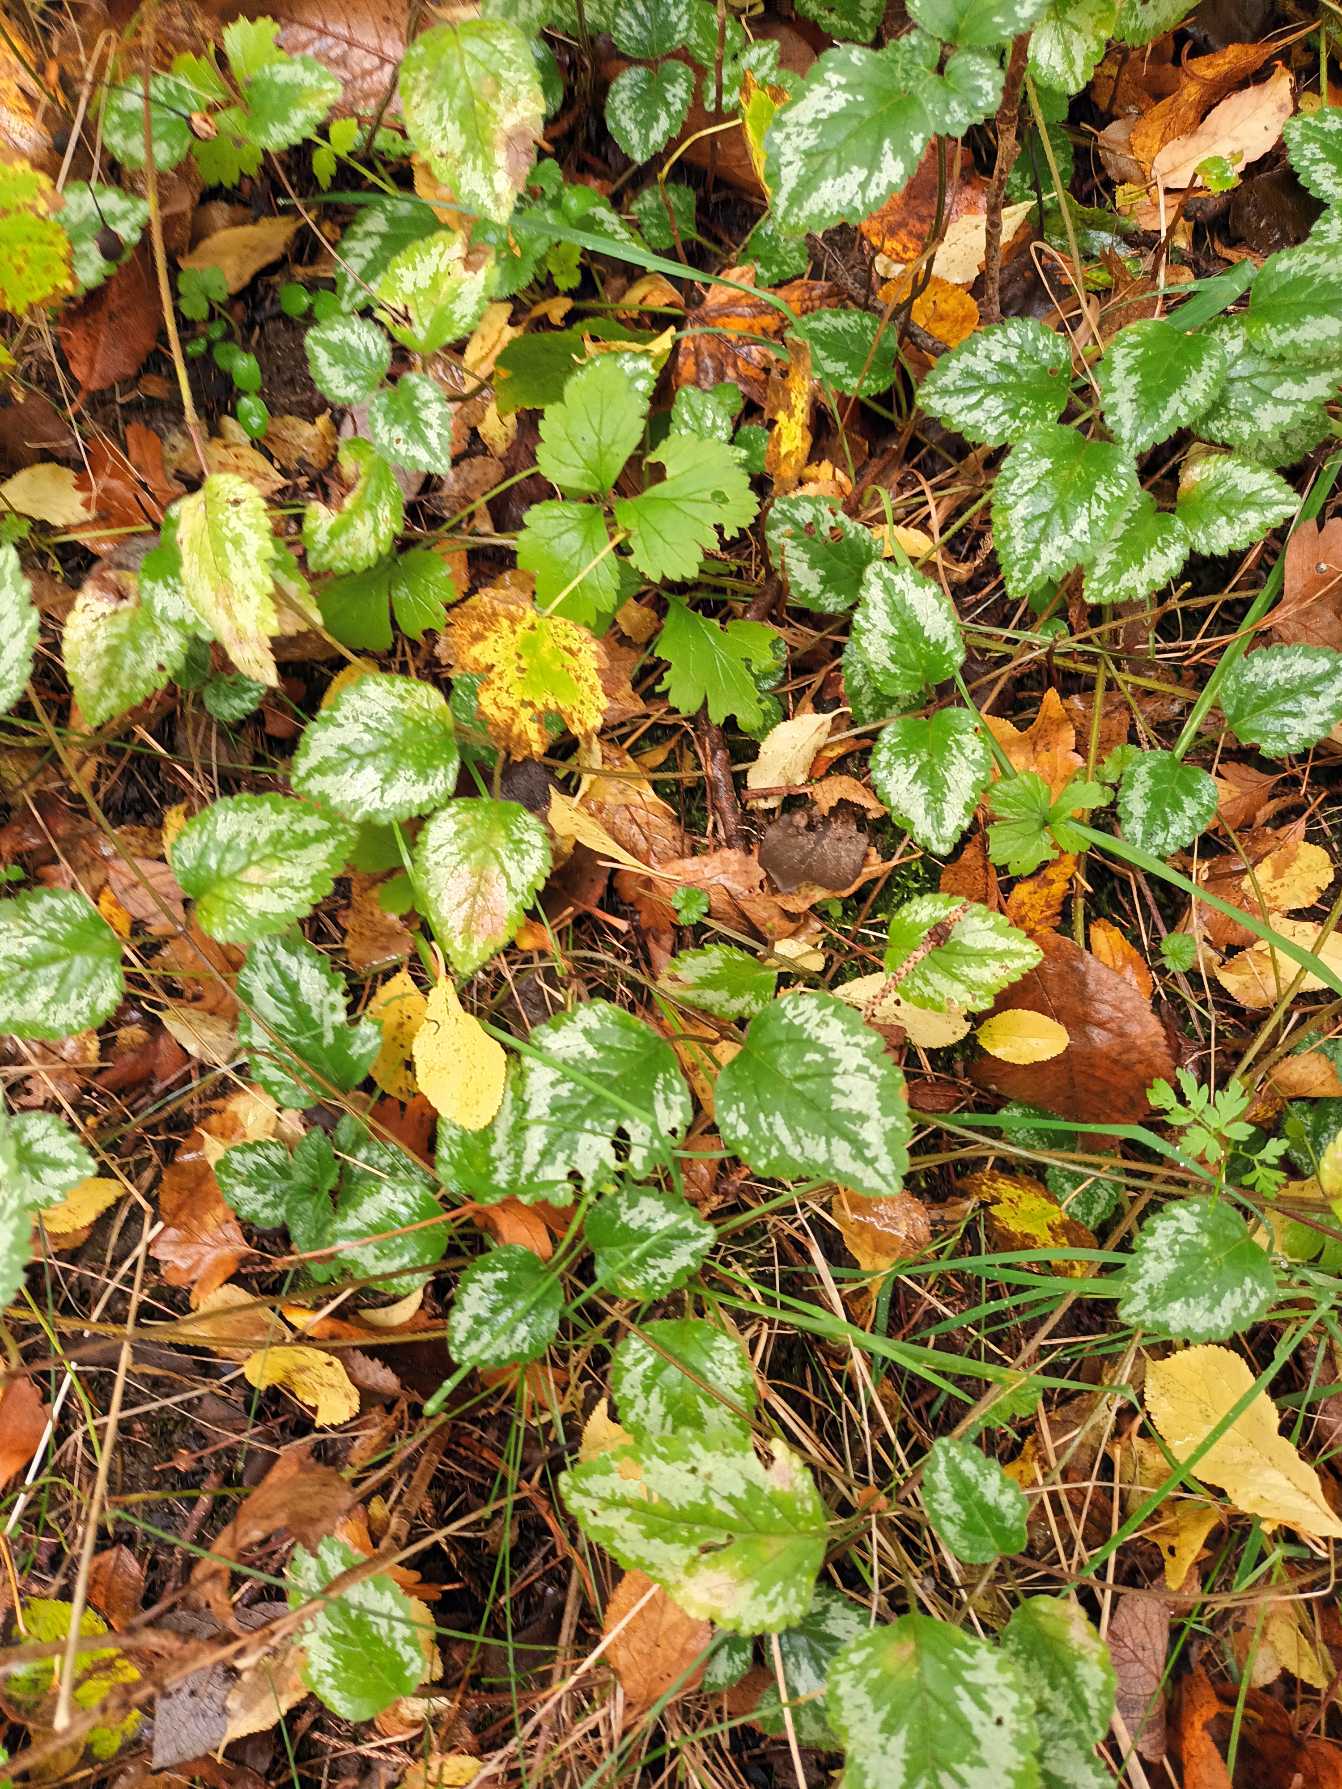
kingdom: Plantae
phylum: Tracheophyta
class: Magnoliopsida
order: Lamiales
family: Lamiaceae
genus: Lamium
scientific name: Lamium galeobdolon
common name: Have-guldnælde
